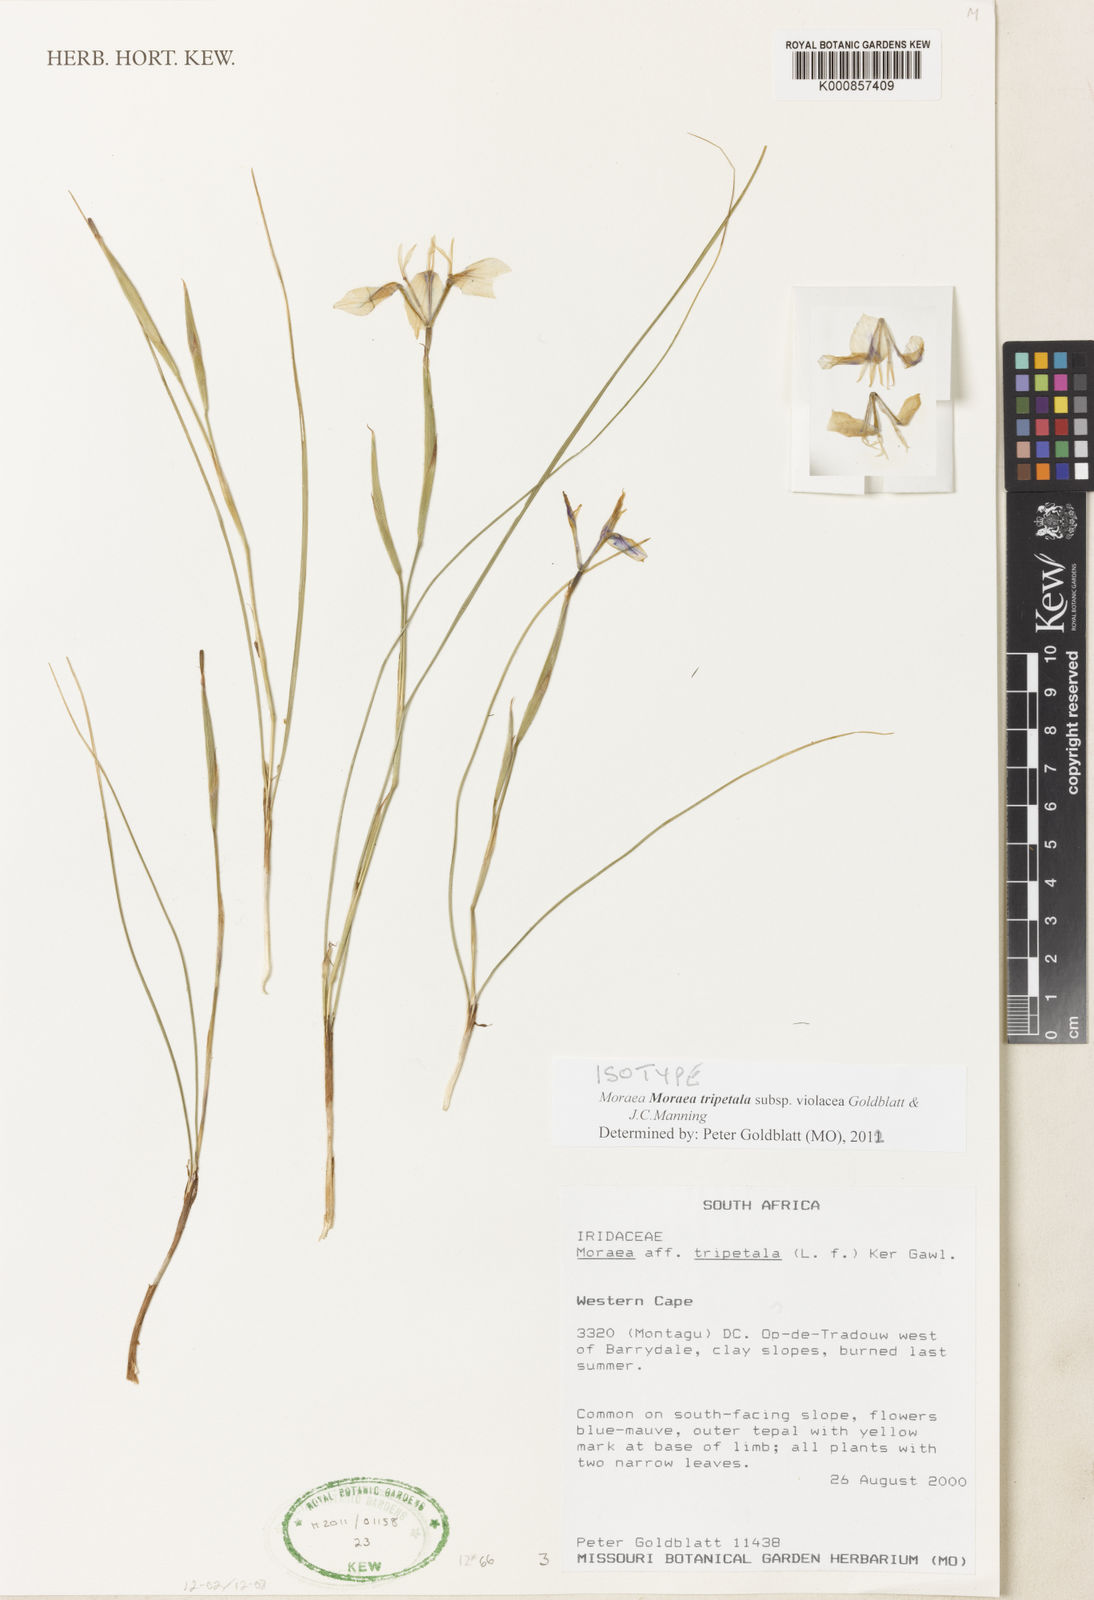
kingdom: Plantae
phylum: Tracheophyta
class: Liliopsida
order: Asparagales
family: Iridaceae
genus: Moraea
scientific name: Moraea tripetala
